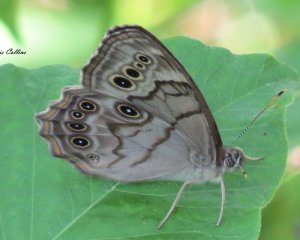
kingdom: Animalia
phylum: Arthropoda
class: Insecta
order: Lepidoptera
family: Nymphalidae
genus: Lethe
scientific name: Lethe anthedon
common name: Northern Pearly-Eye
